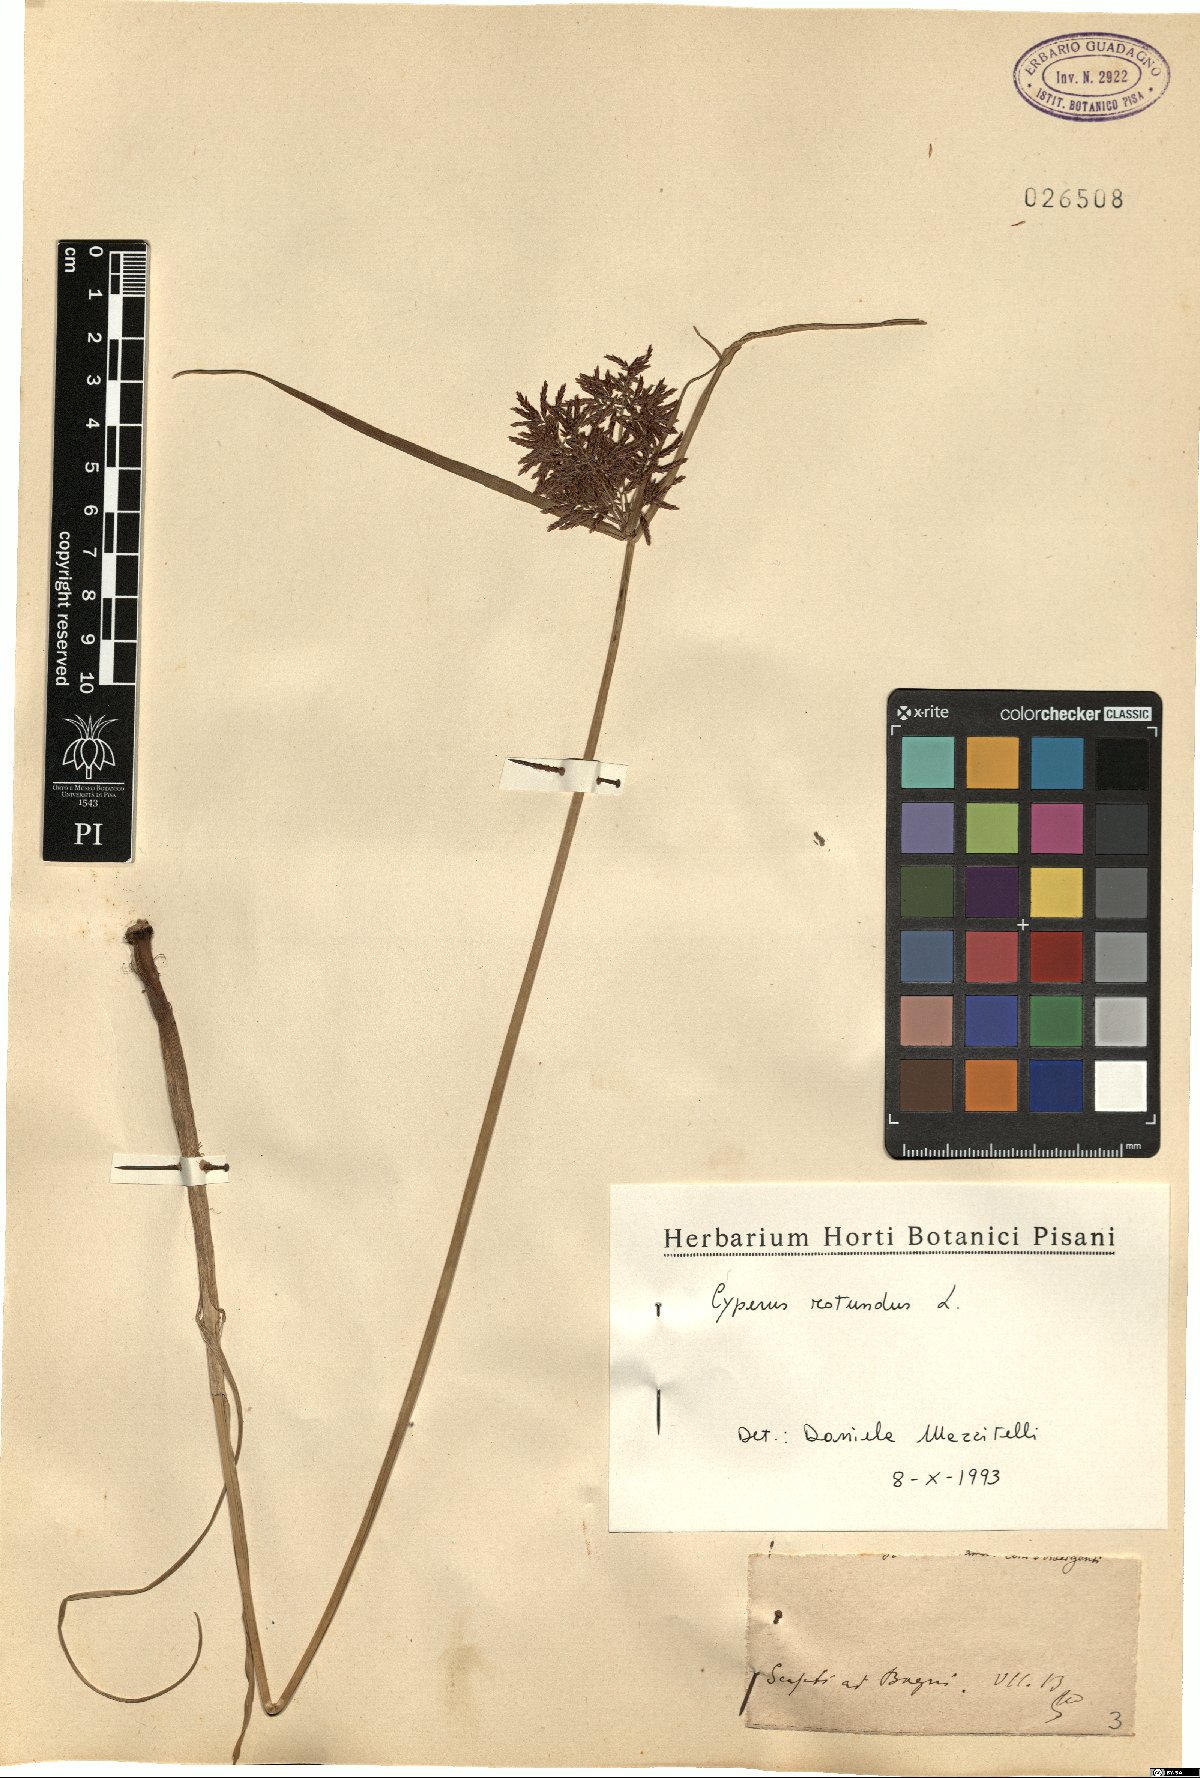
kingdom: Plantae
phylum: Tracheophyta
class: Liliopsida
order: Poales
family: Cyperaceae
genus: Cyperus
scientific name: Cyperus rotundus
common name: Nutgrass
